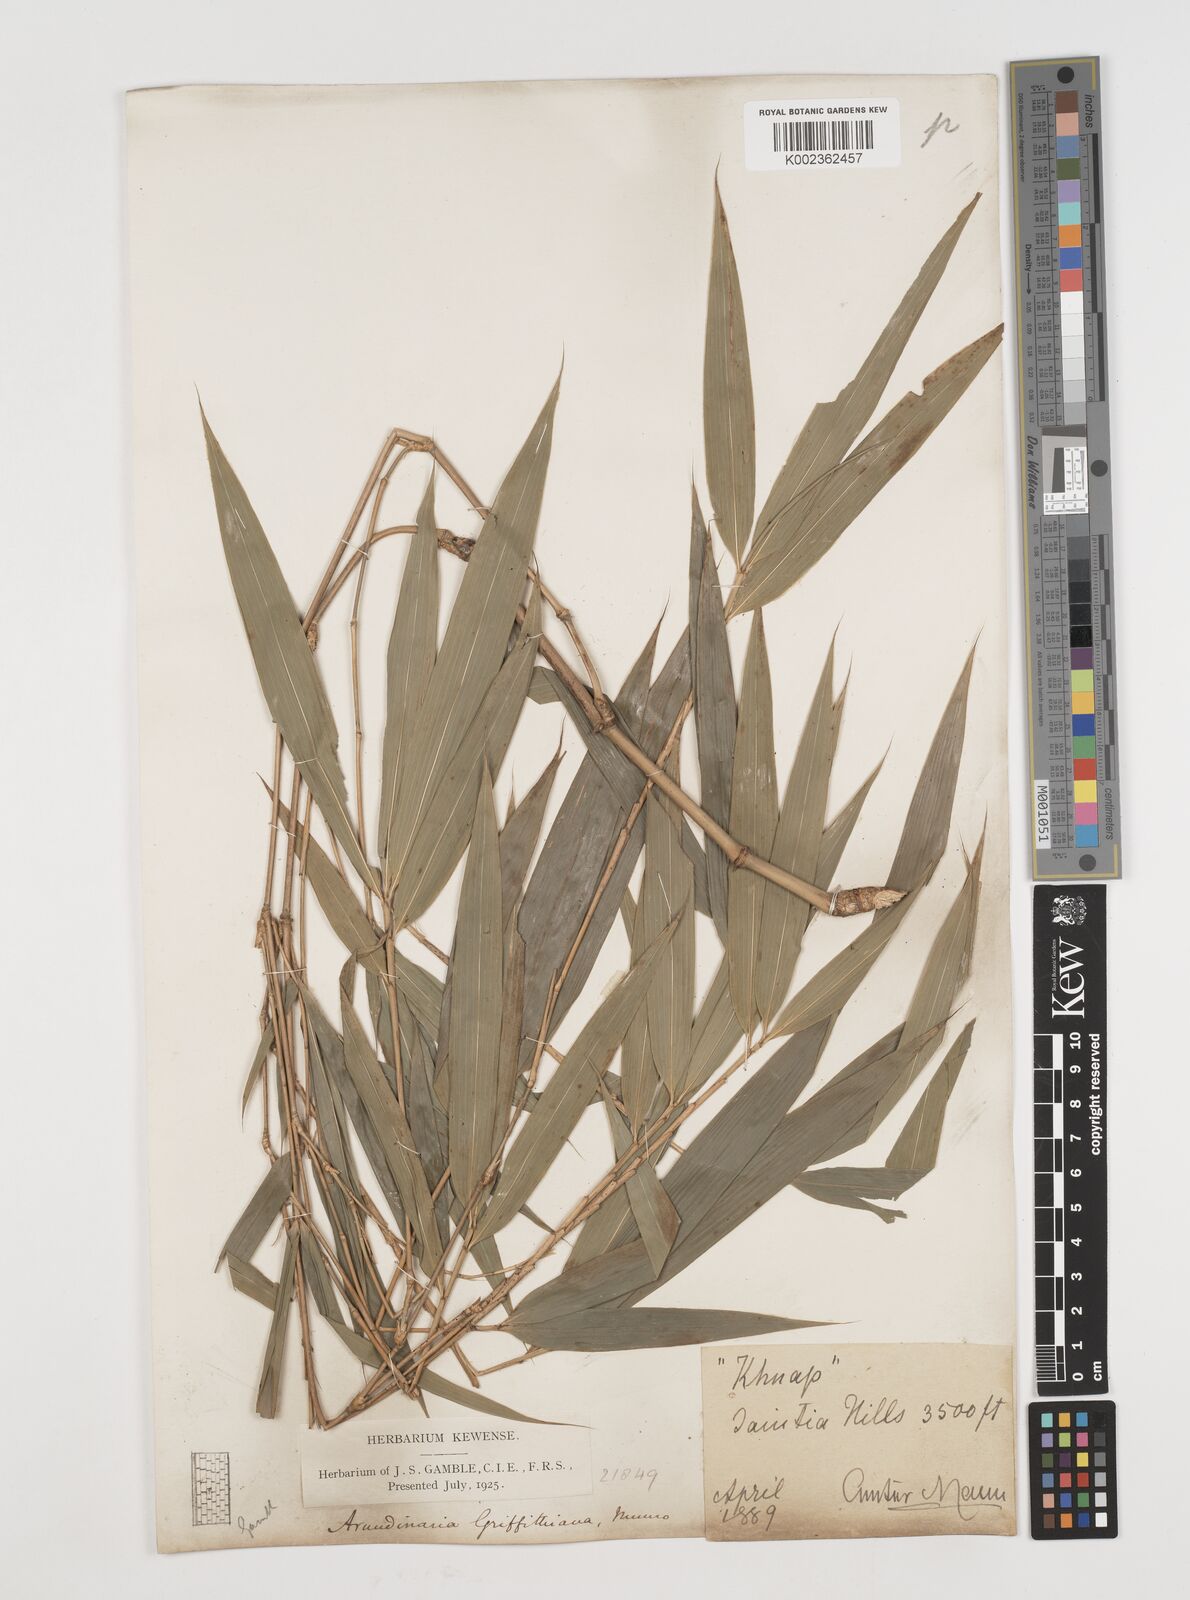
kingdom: Plantae
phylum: Tracheophyta
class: Liliopsida
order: Poales
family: Poaceae
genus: Chimonocalamus
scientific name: Chimonocalamus griffithianus
